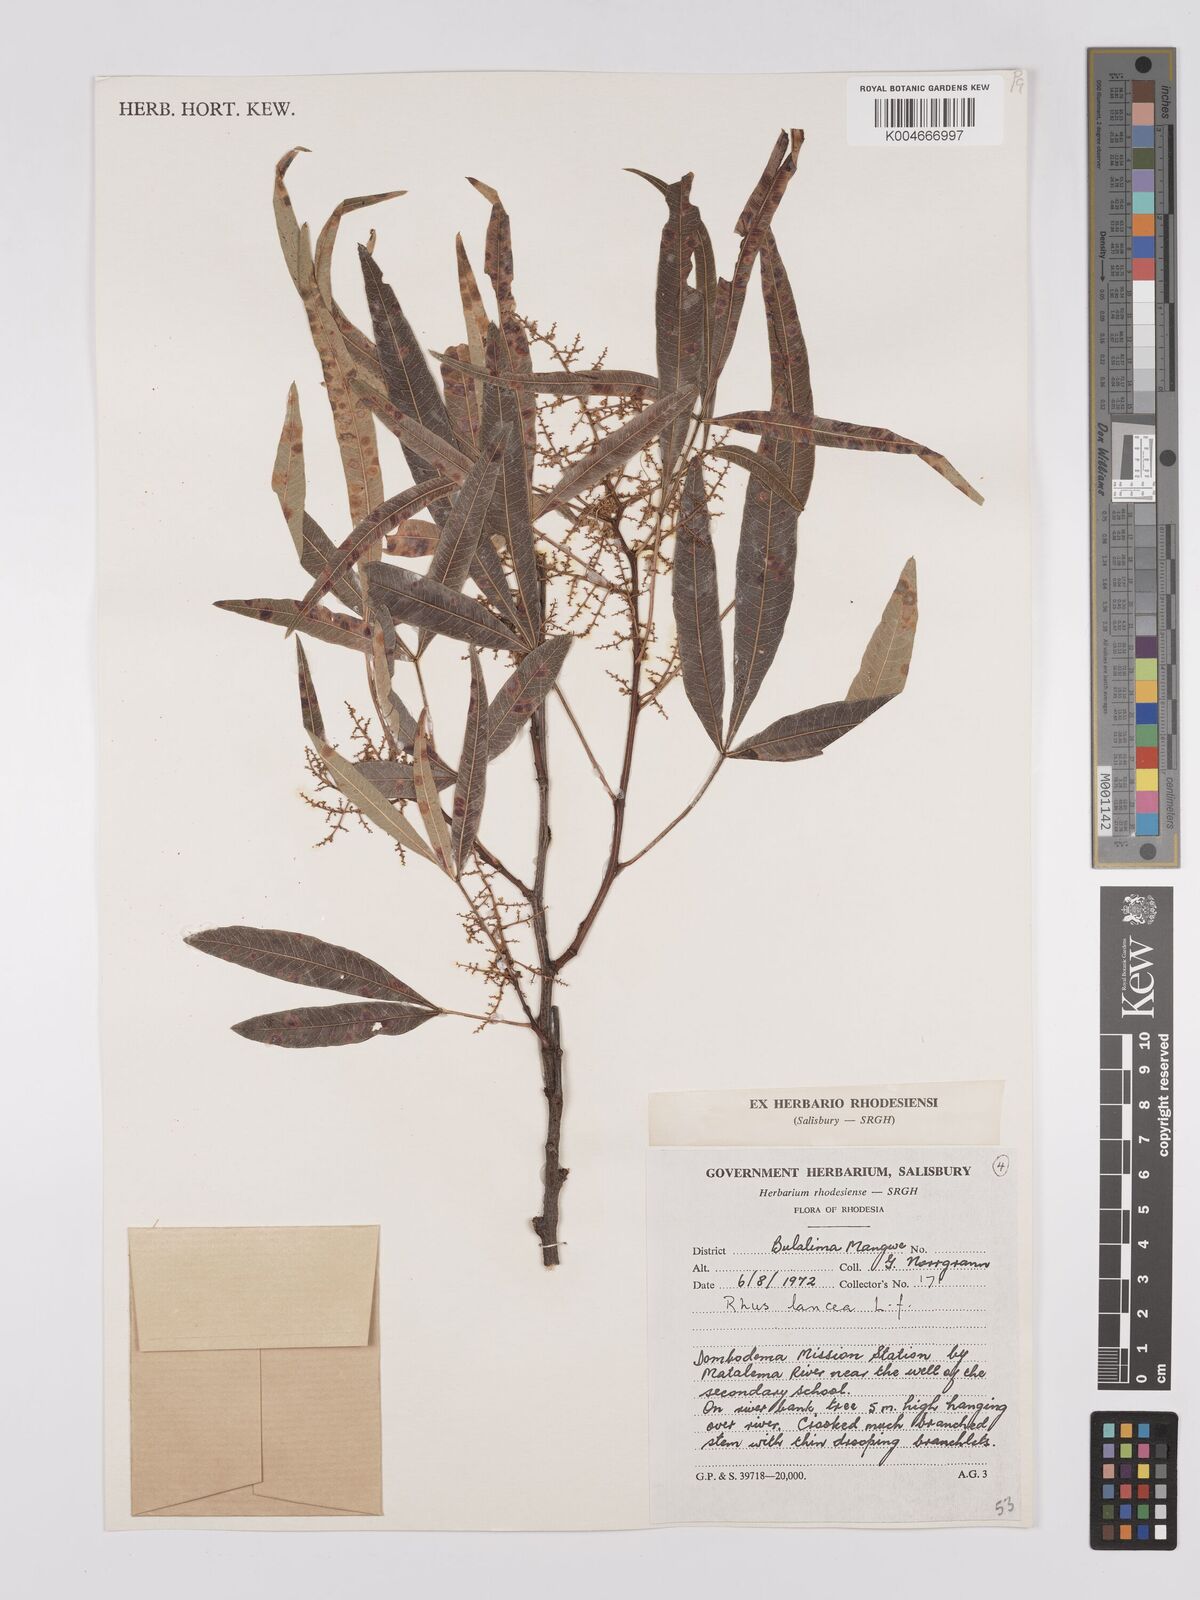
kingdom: Plantae
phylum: Tracheophyta
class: Magnoliopsida
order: Sapindales
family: Anacardiaceae
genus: Searsia
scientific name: Searsia lancea
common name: Cashew
